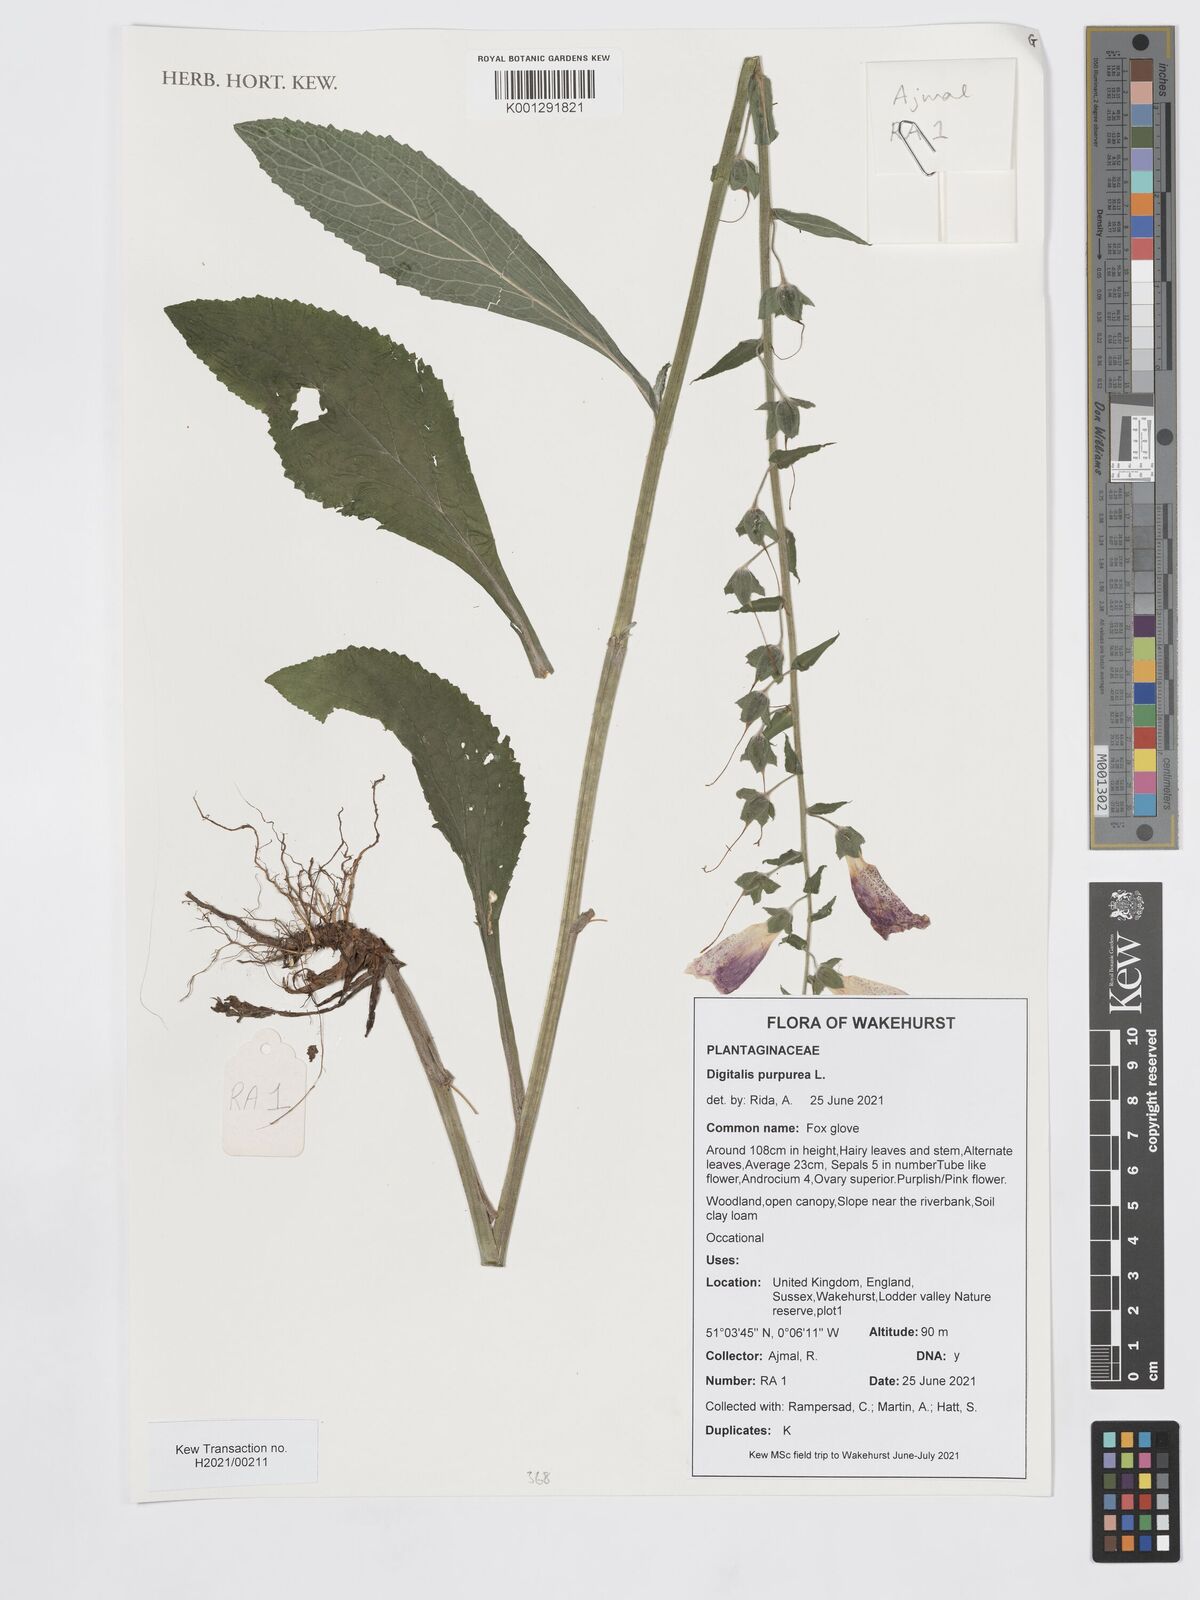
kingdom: Plantae
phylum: Tracheophyta
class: Magnoliopsida
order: Lamiales
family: Plantaginaceae
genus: Digitalis
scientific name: Digitalis purpurea
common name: Foxglove
